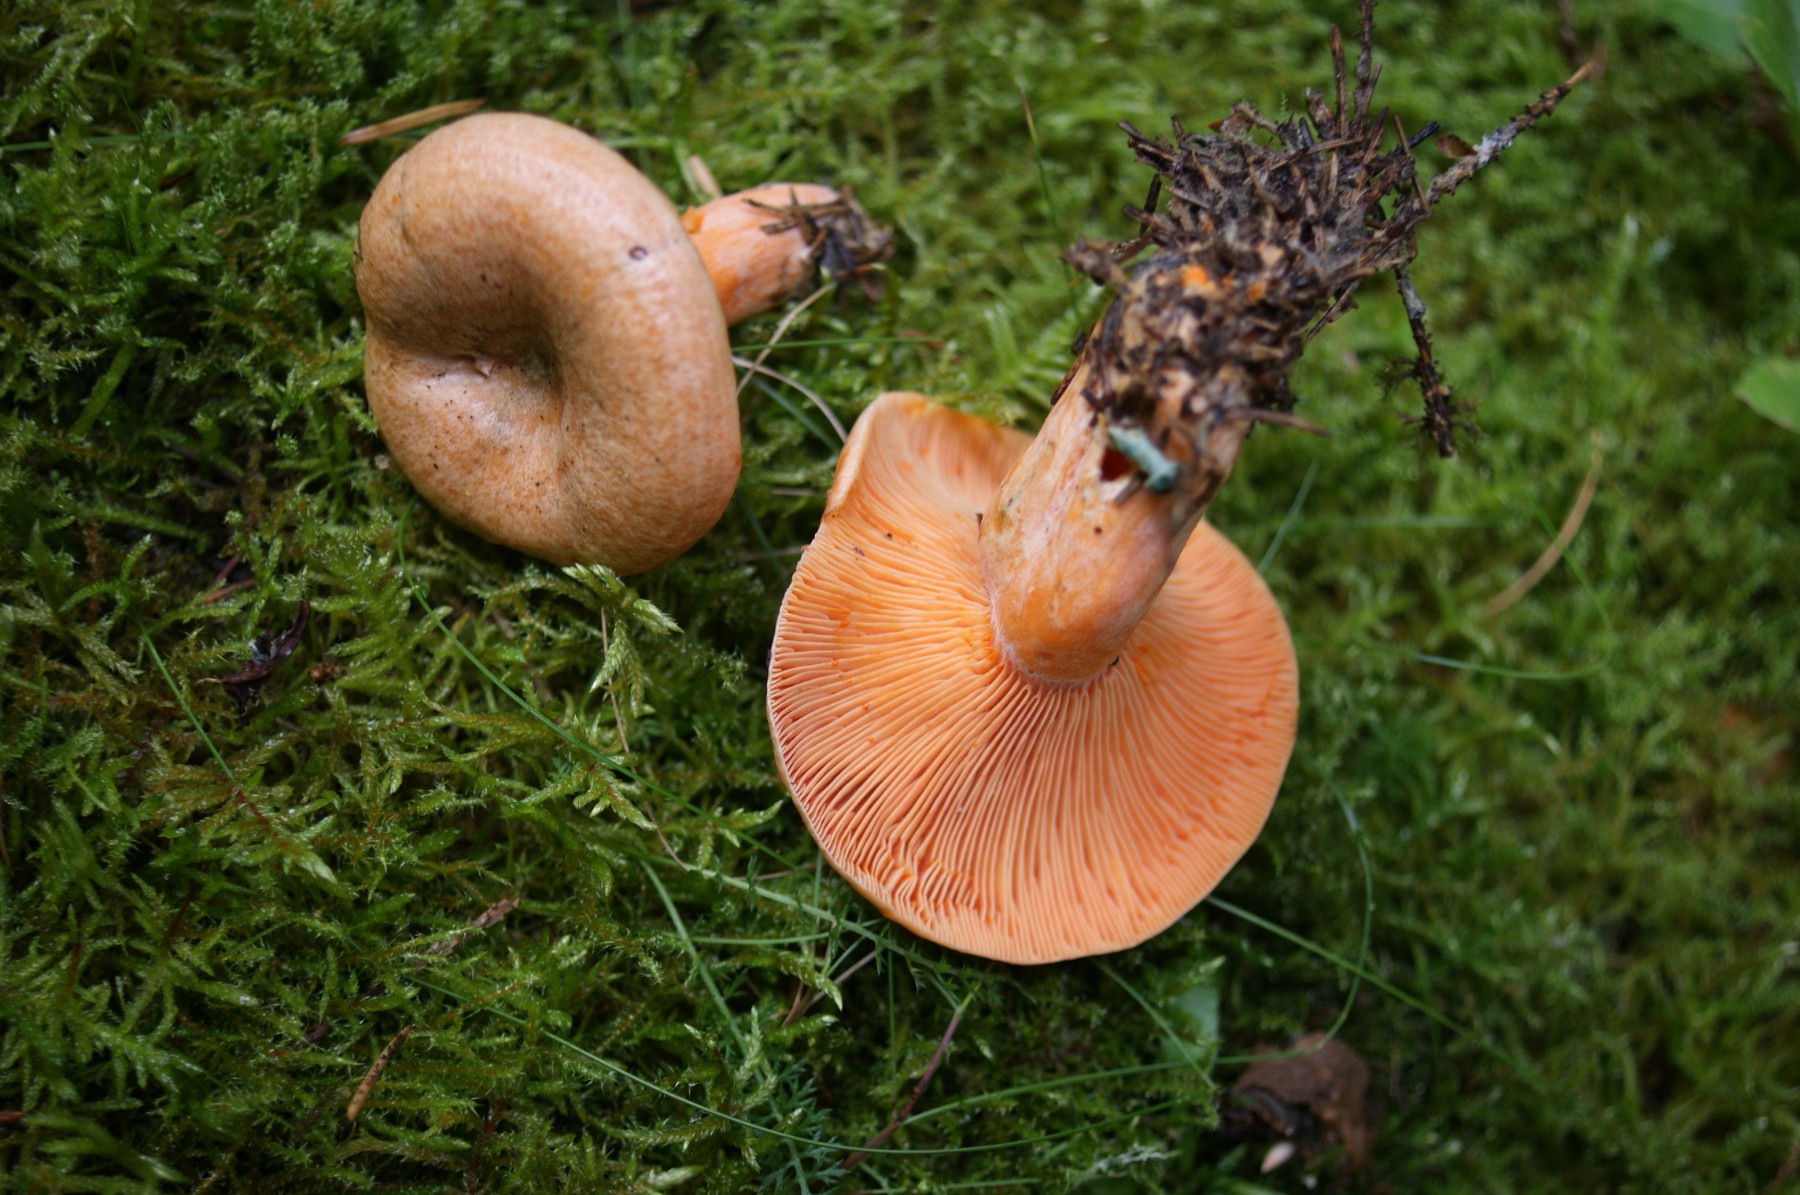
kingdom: Fungi
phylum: Basidiomycota
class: Agaricomycetes
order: Russulales
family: Russulaceae
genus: Lactarius
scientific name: Lactarius deterrimus
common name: gran-mælkehat
